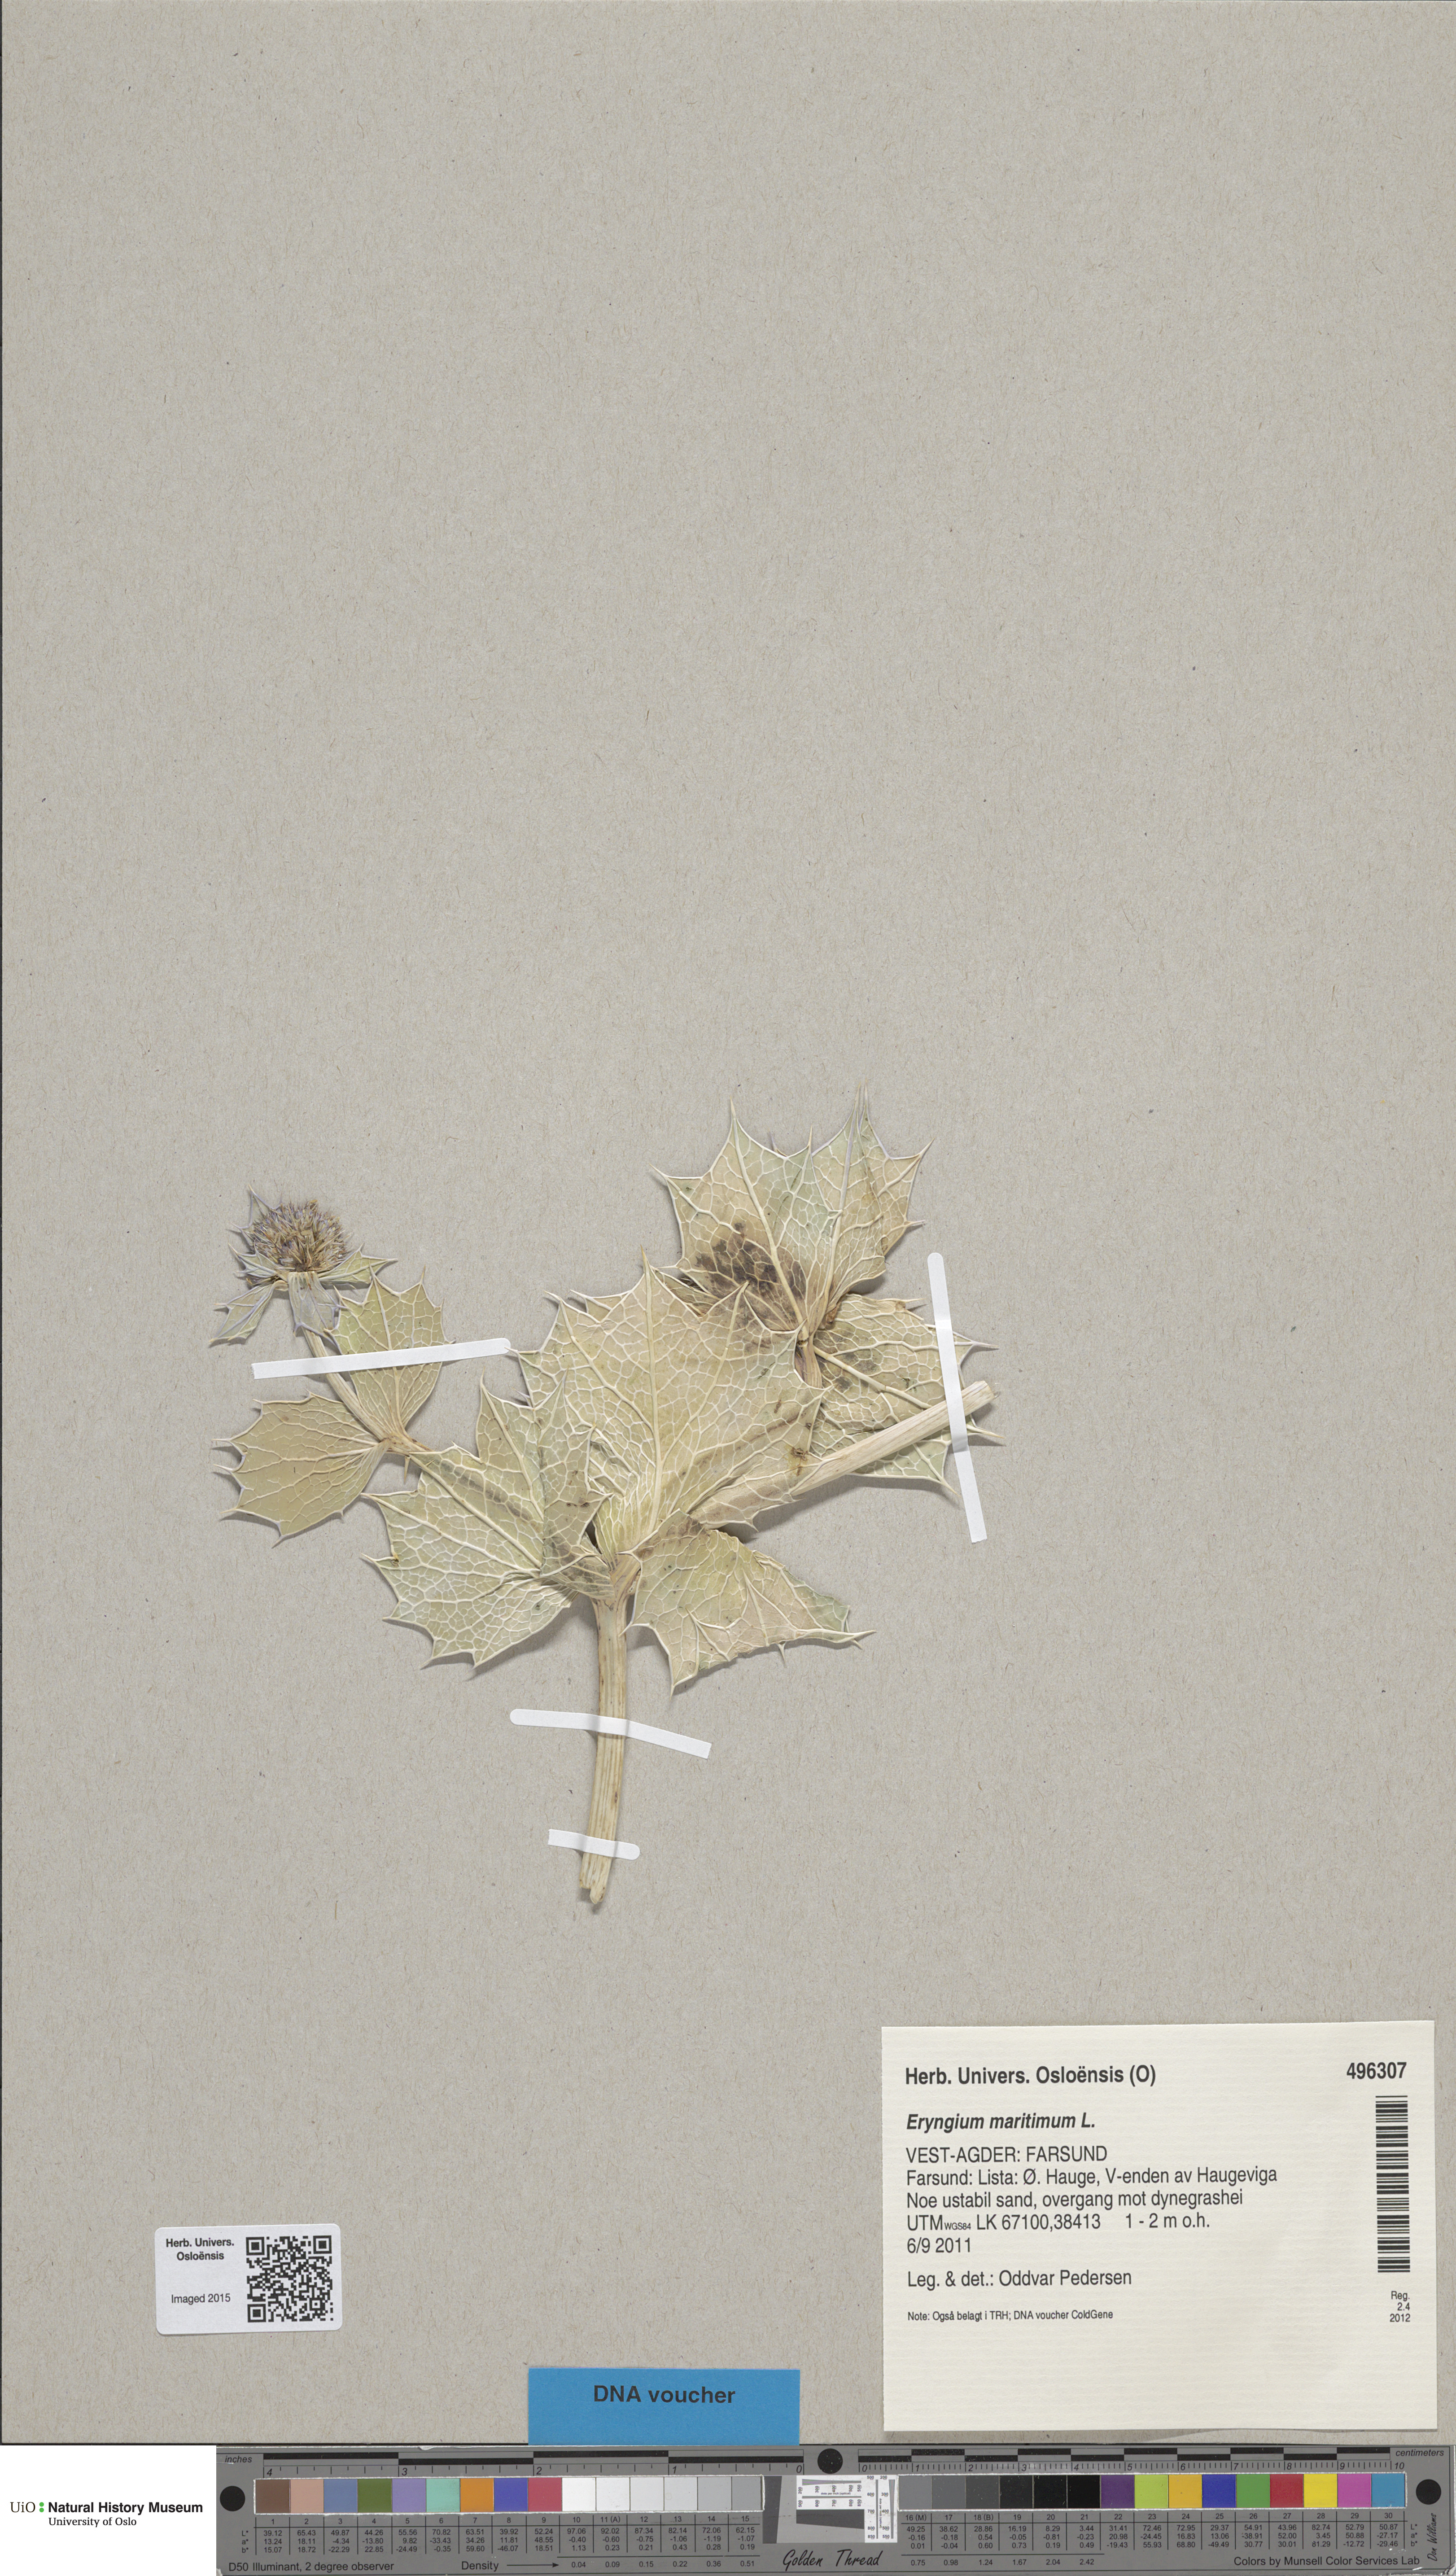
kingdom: Plantae
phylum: Tracheophyta
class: Magnoliopsida
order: Apiales
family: Apiaceae
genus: Eryngium
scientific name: Eryngium maritimum
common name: Sea-holly
